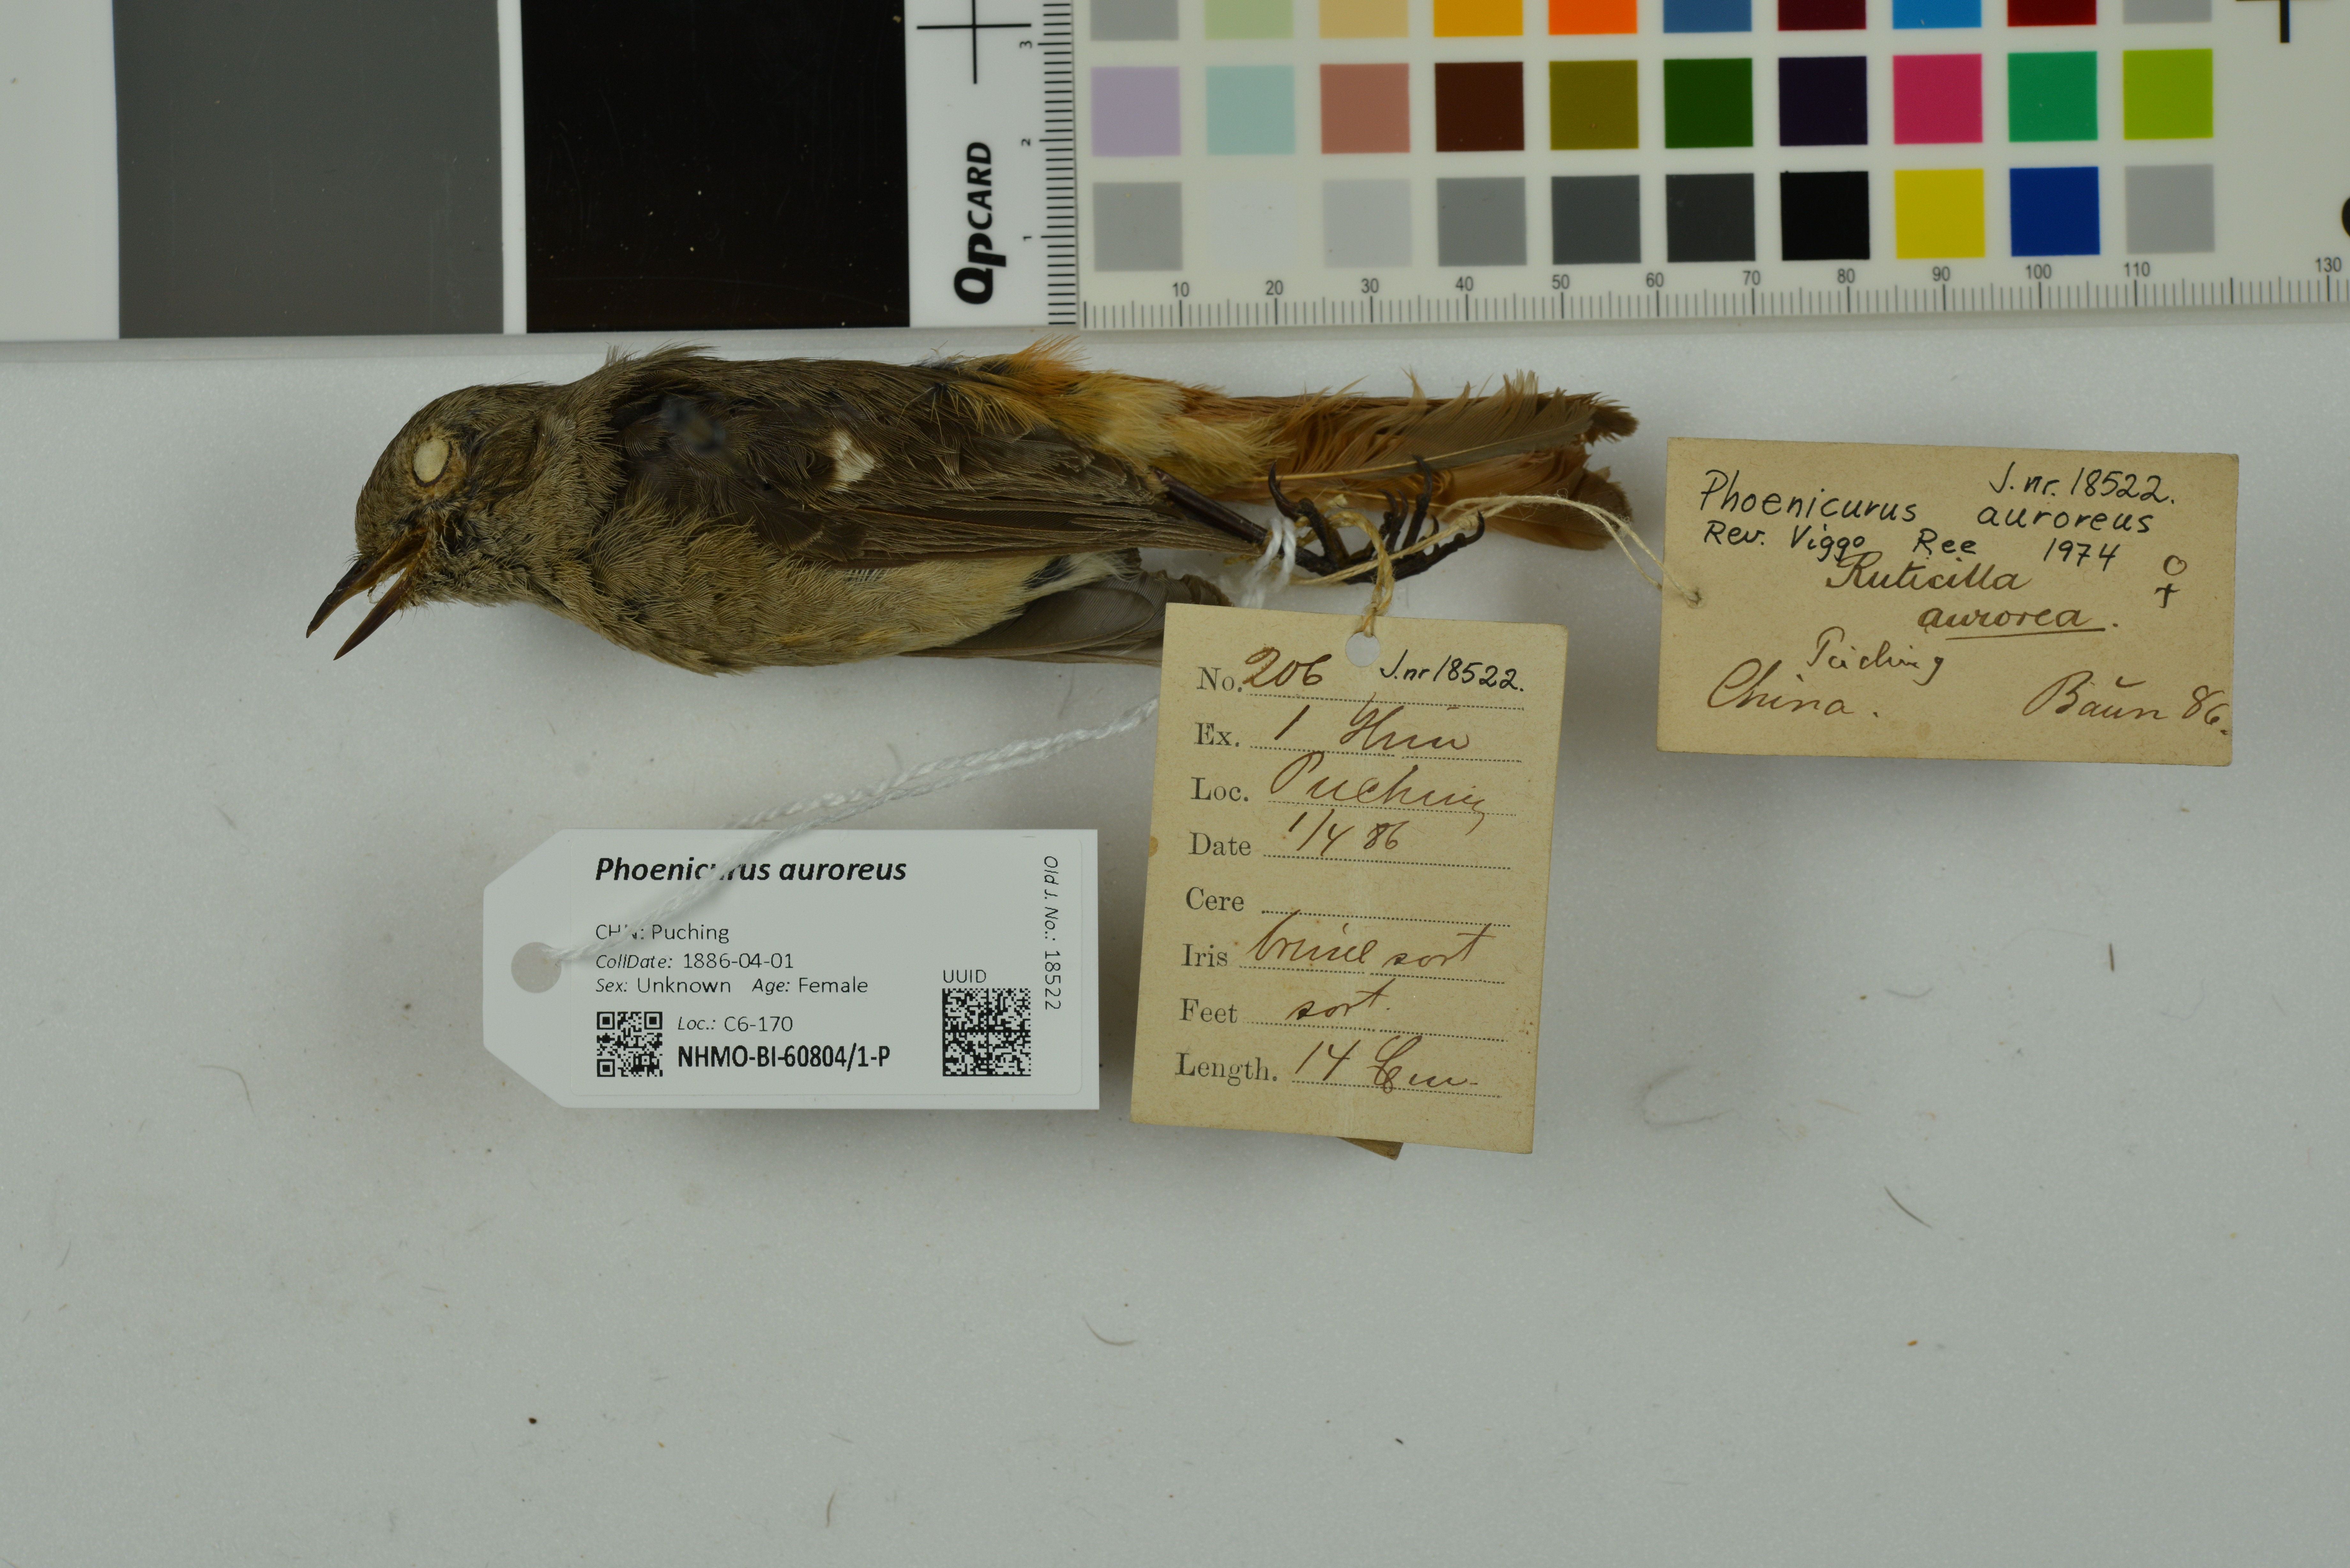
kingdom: Animalia
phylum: Chordata
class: Aves
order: Passeriformes
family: Muscicapidae
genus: Phoenicurus
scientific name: Phoenicurus auroreus
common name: Daurian redstart
